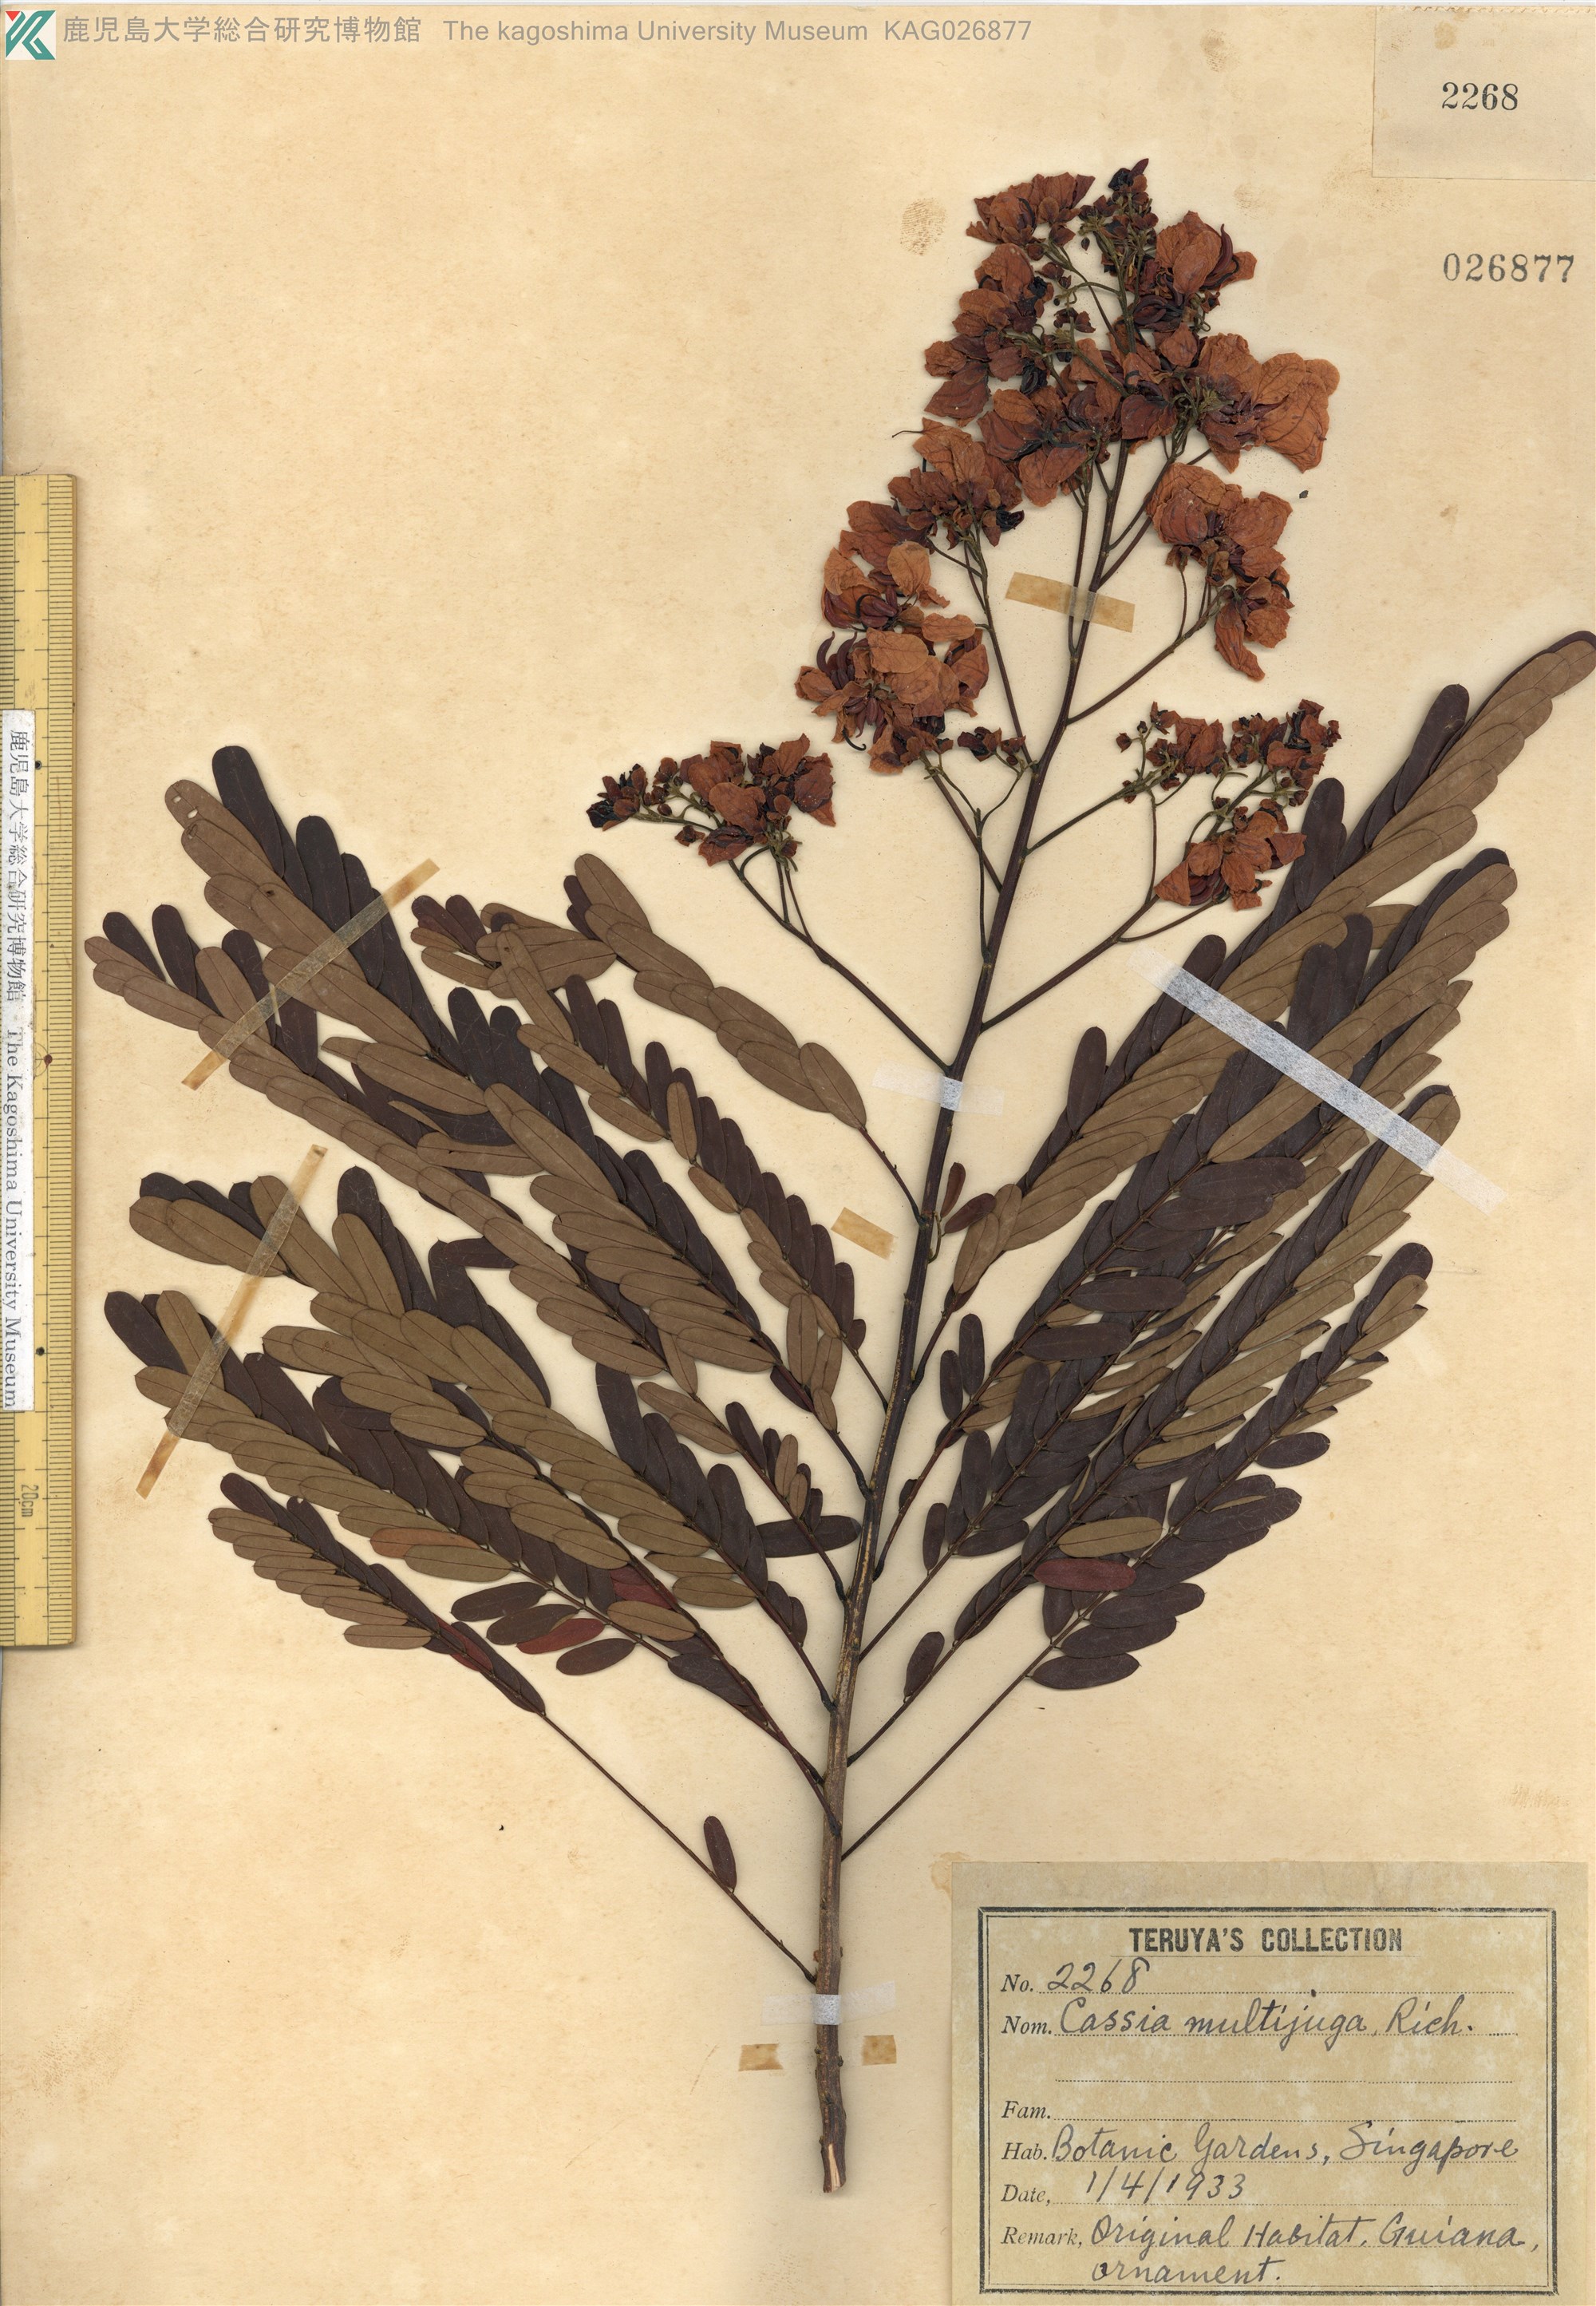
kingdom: Plantae
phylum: Tracheophyta
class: Magnoliopsida
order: Fabales
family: Fabaceae
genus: Senna
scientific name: Senna multijuga
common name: False sicklepod
